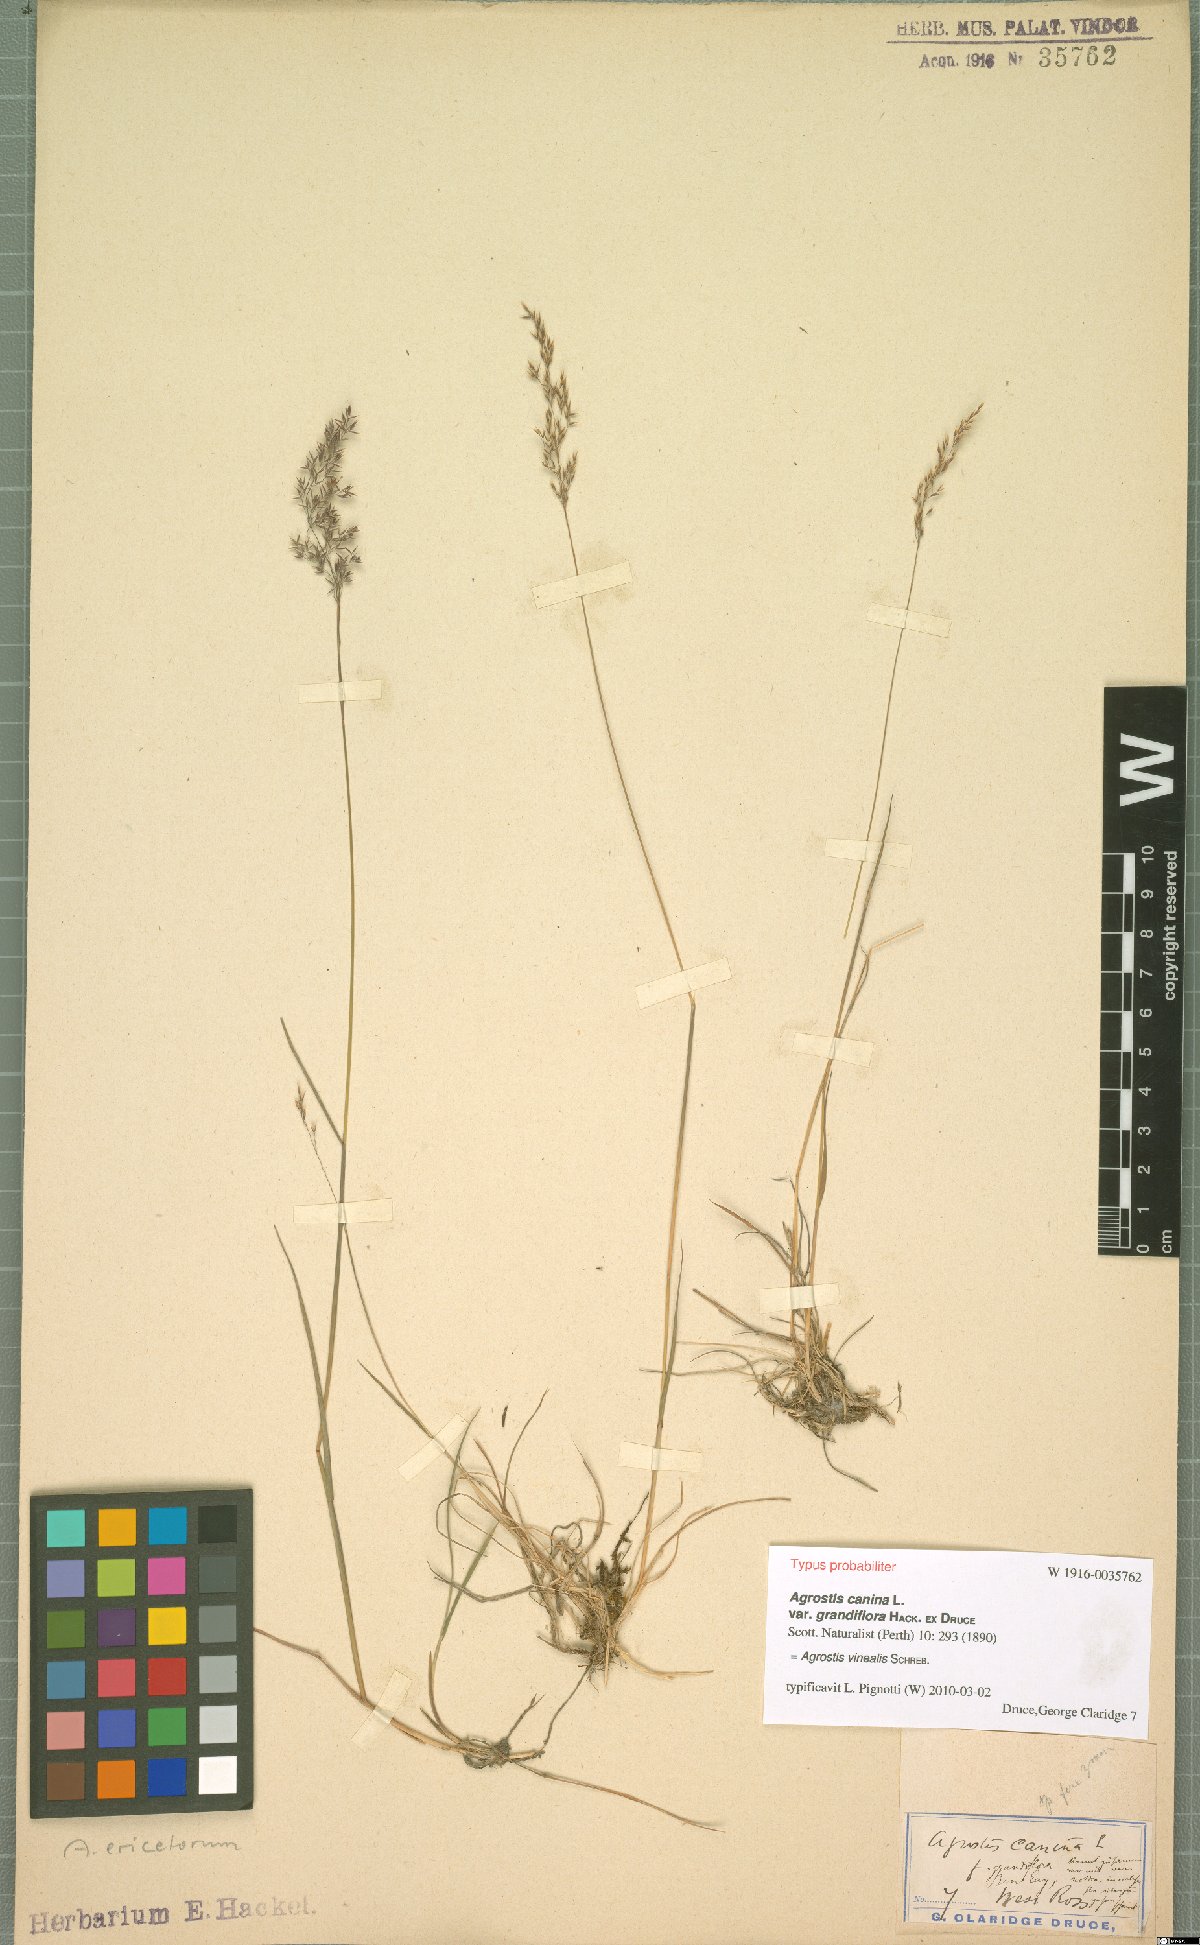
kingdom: Plantae
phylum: Tracheophyta
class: Liliopsida
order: Poales
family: Poaceae
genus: Agrostis
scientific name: Agrostis vinealis
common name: Brown bent
